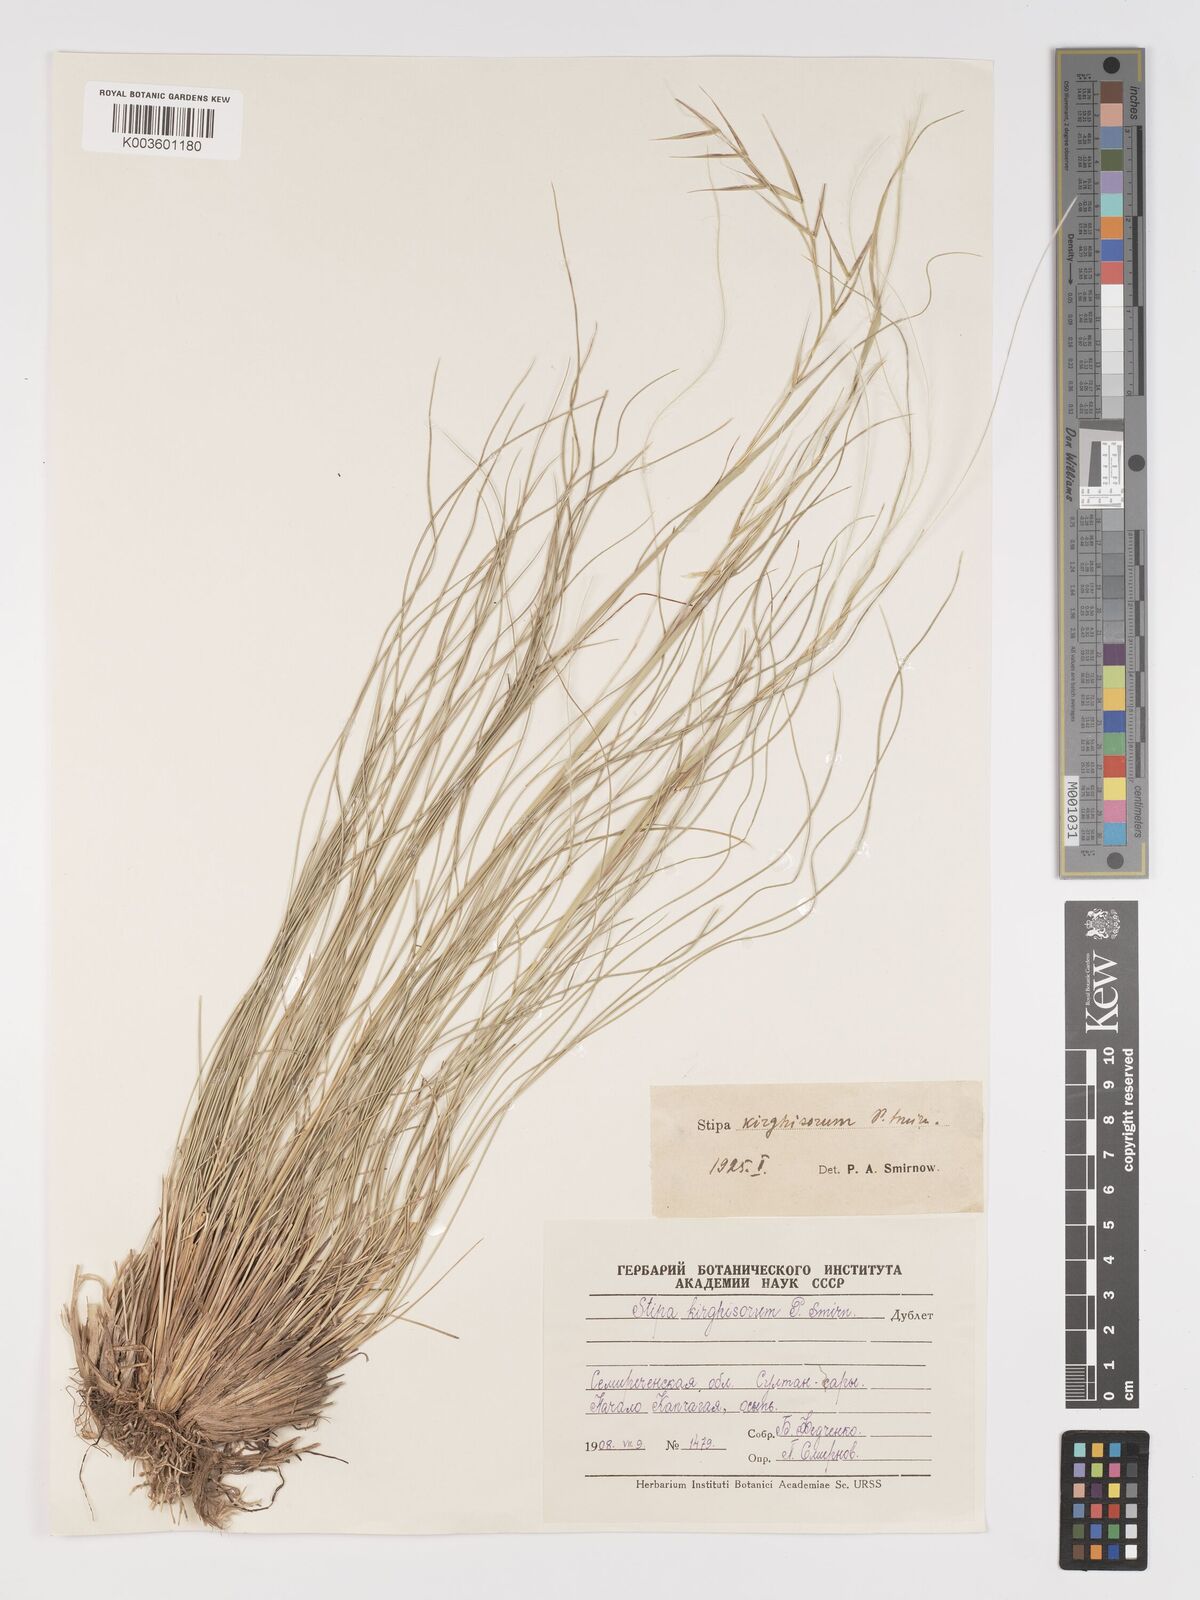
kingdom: Plantae
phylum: Tracheophyta
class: Liliopsida
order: Poales
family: Poaceae
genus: Stipa
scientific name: Stipa kirghisorum
